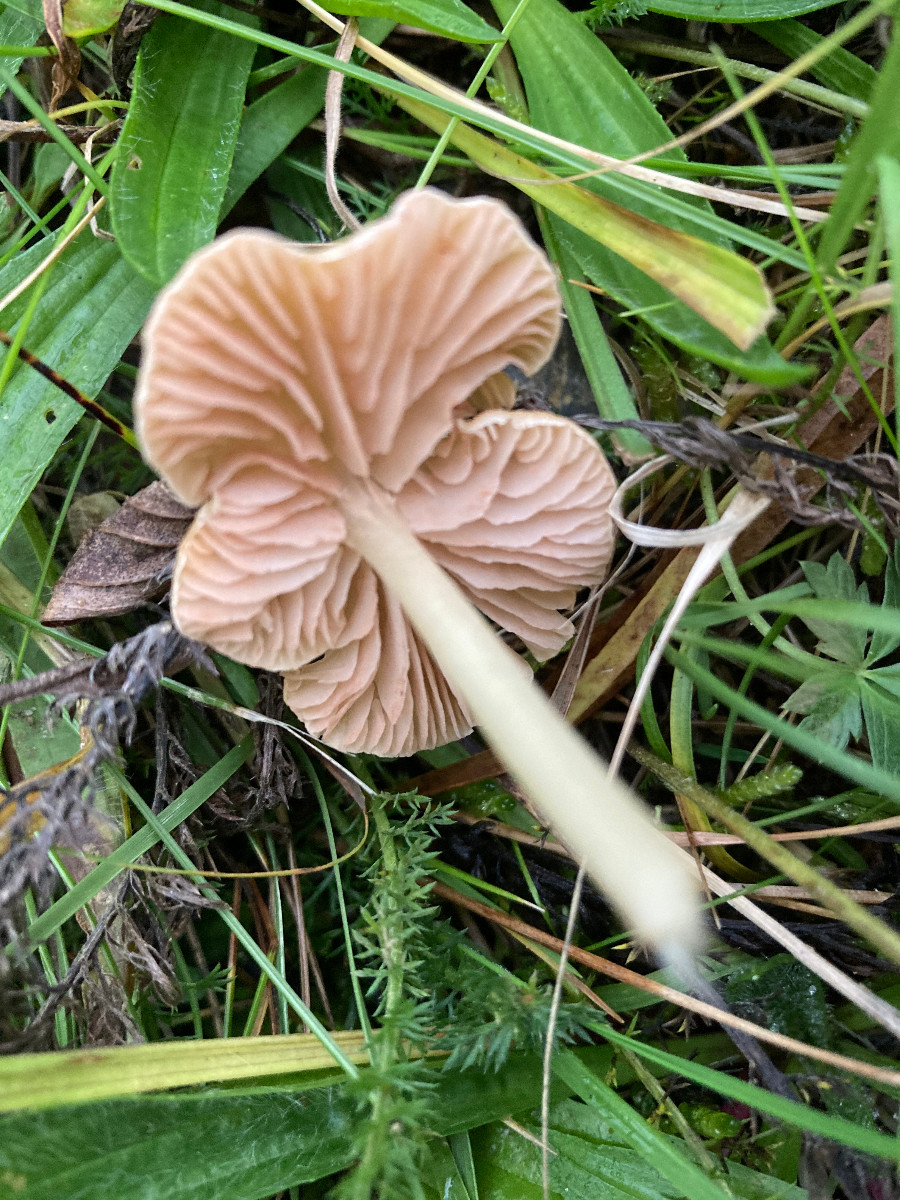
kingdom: Fungi
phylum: Basidiomycota
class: Agaricomycetes
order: Agaricales
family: Entolomataceae
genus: Entoloma
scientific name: Entoloma sericellum
